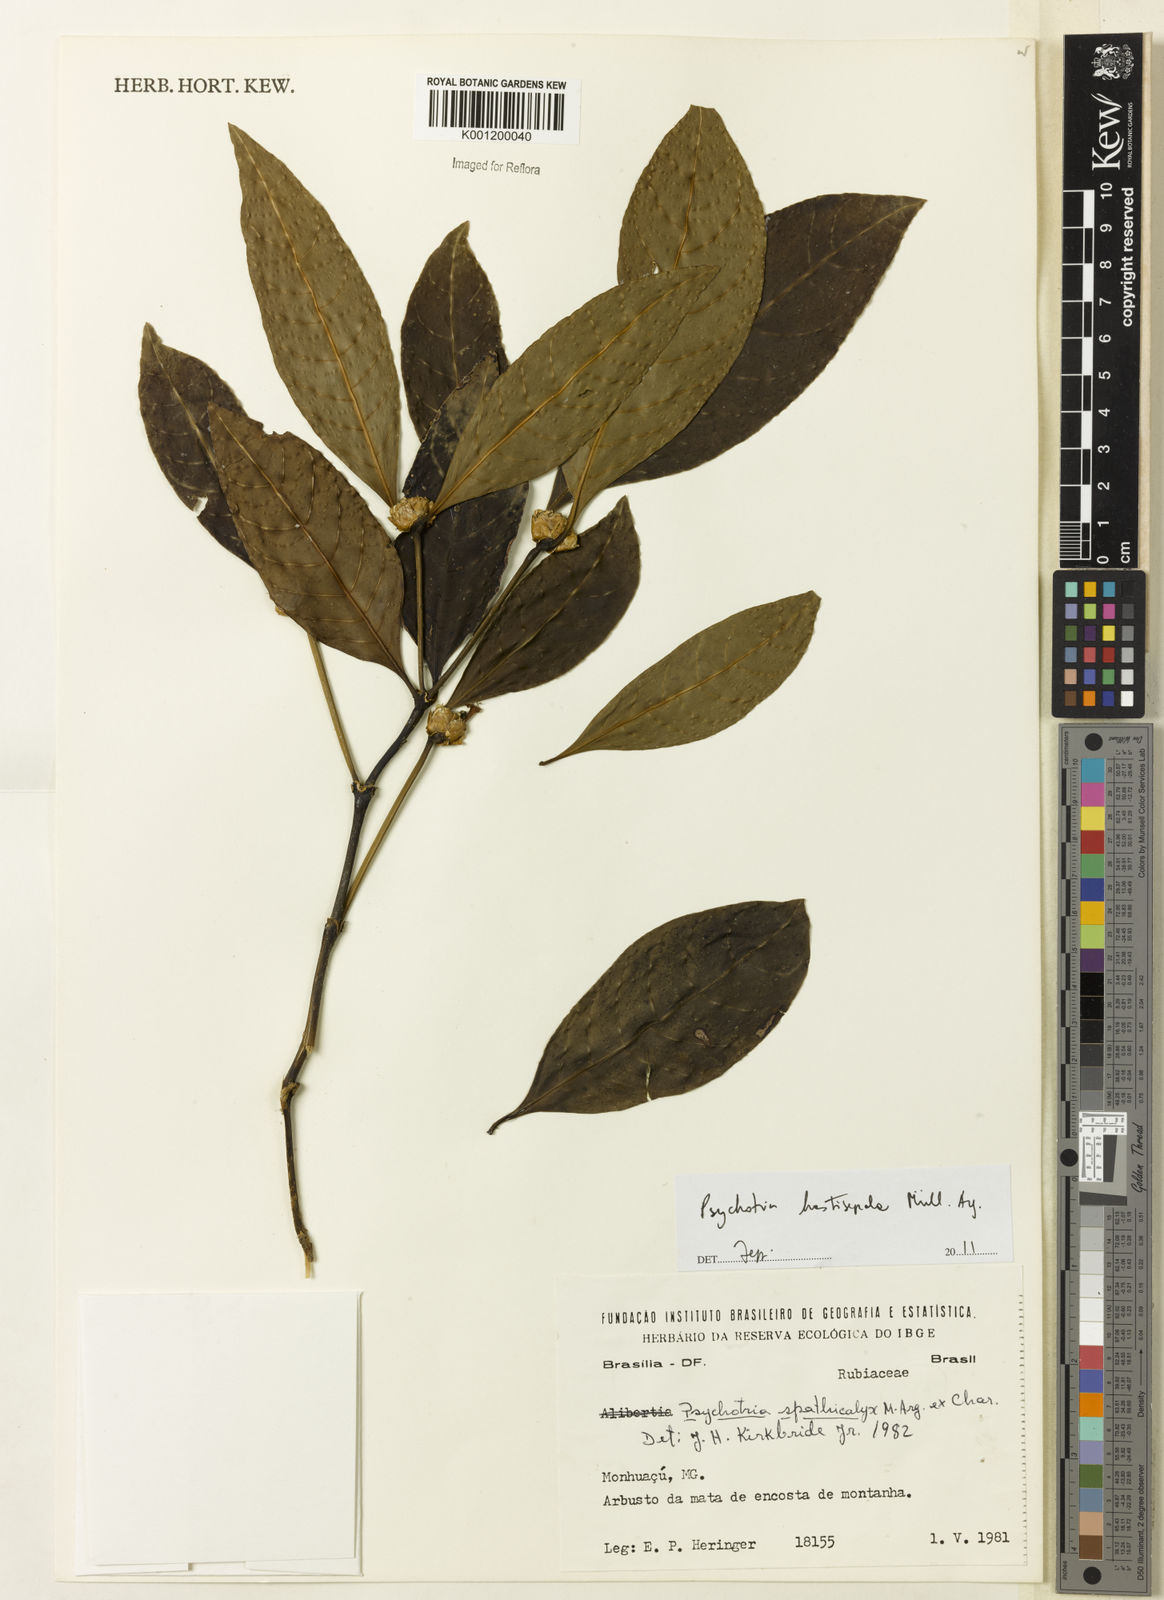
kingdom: Plantae
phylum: Tracheophyta
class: Magnoliopsida
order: Gentianales
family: Rubiaceae
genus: Psychotria
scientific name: Psychotria
